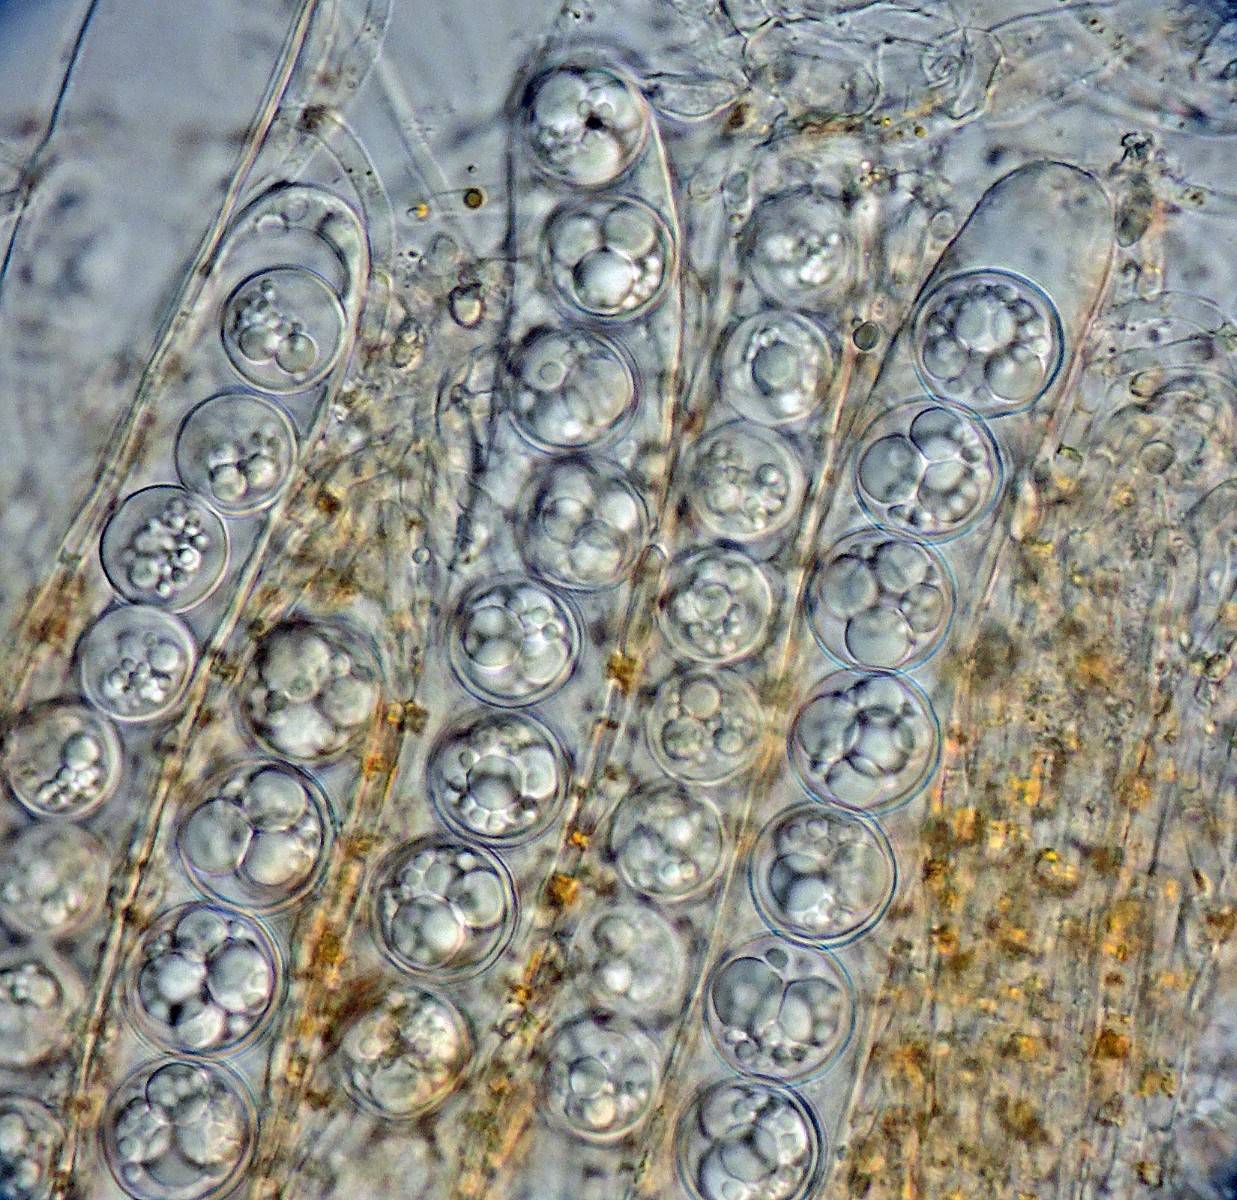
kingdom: Fungi
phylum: Ascomycota
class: Pezizomycetes
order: Pezizales
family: Pulvinulaceae
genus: Pulvinula
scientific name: Pulvinula miltina
